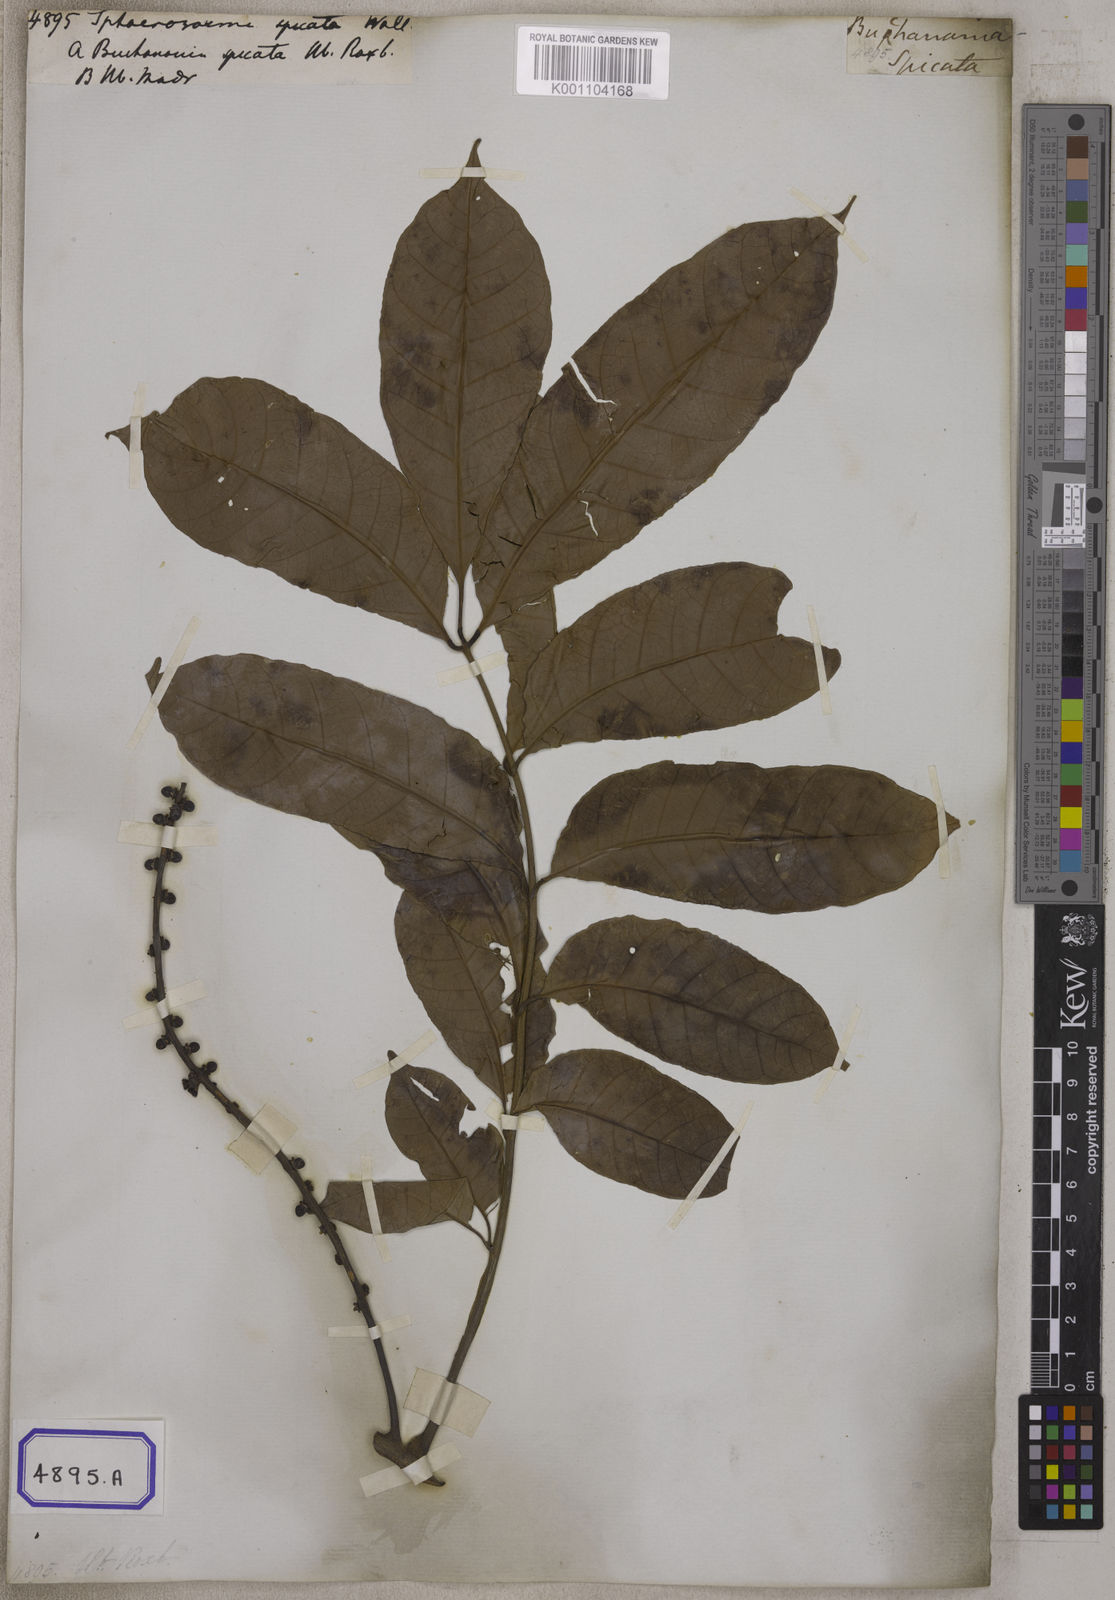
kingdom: Plantae
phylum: Tracheophyta
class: Magnoliopsida
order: Sapindales
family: Meliaceae
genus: Aphanamixis
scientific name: Aphanamixis polystachya
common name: Pithraj tree
